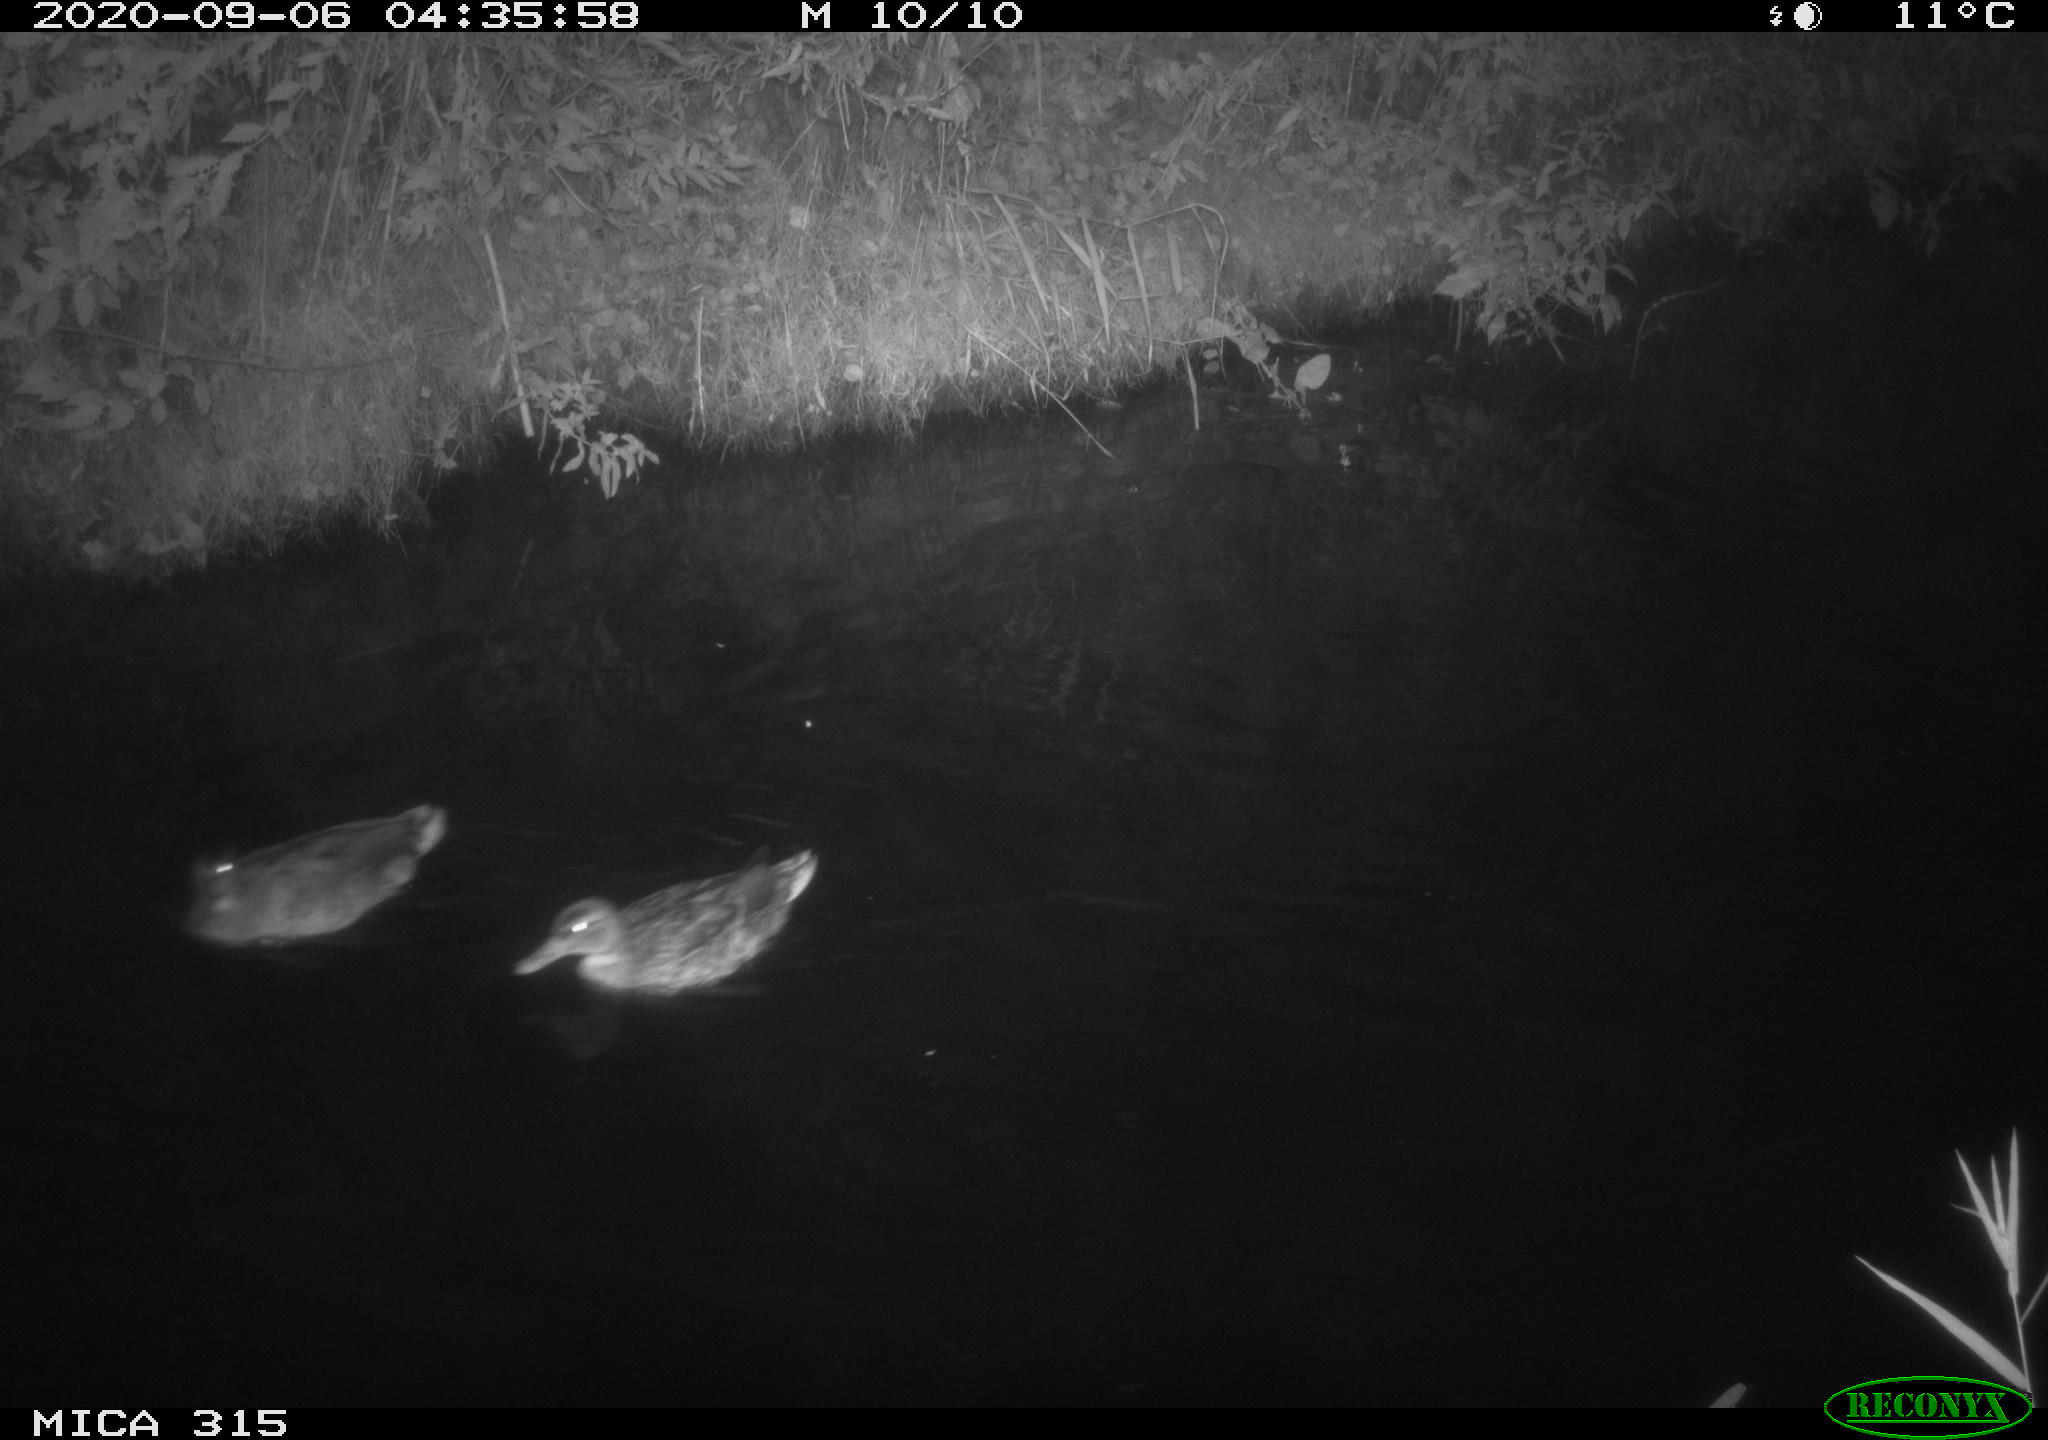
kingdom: Animalia
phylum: Chordata
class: Aves
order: Anseriformes
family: Anatidae
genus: Anas
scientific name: Anas platyrhynchos
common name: Mallard
